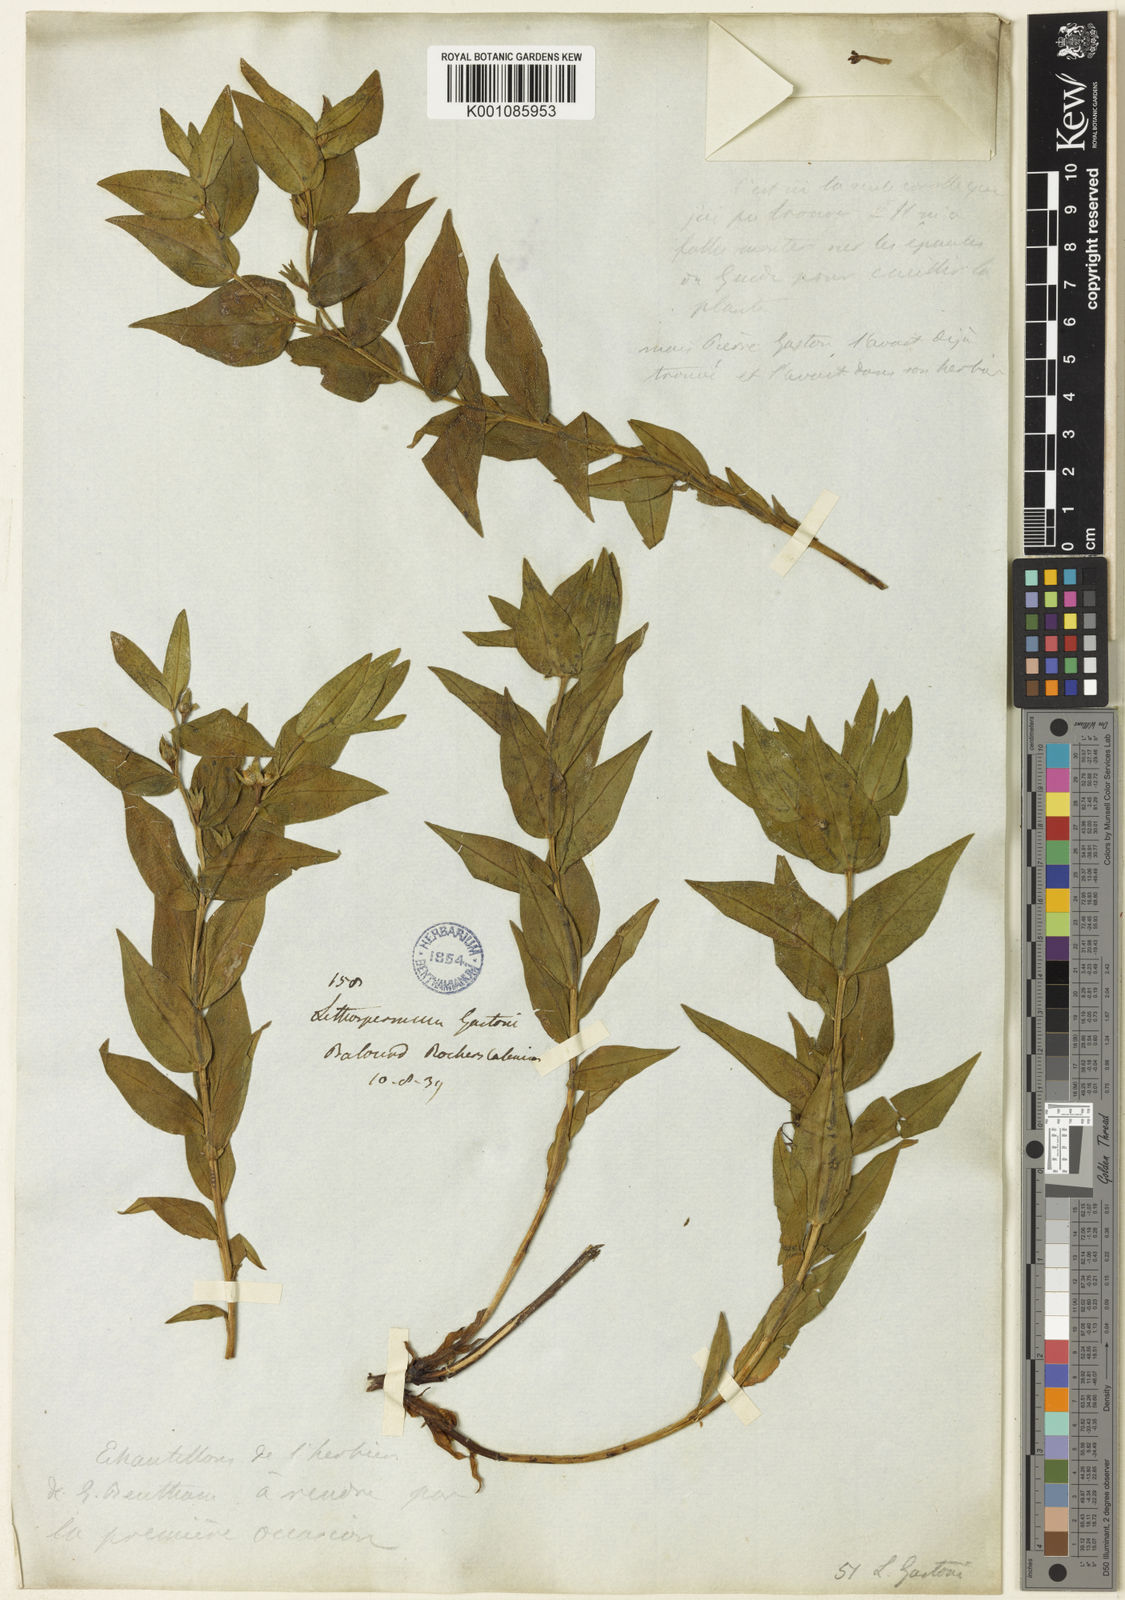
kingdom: Plantae
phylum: Tracheophyta
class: Magnoliopsida
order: Boraginales
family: Boraginaceae
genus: Glandora
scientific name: Glandora gastonii
